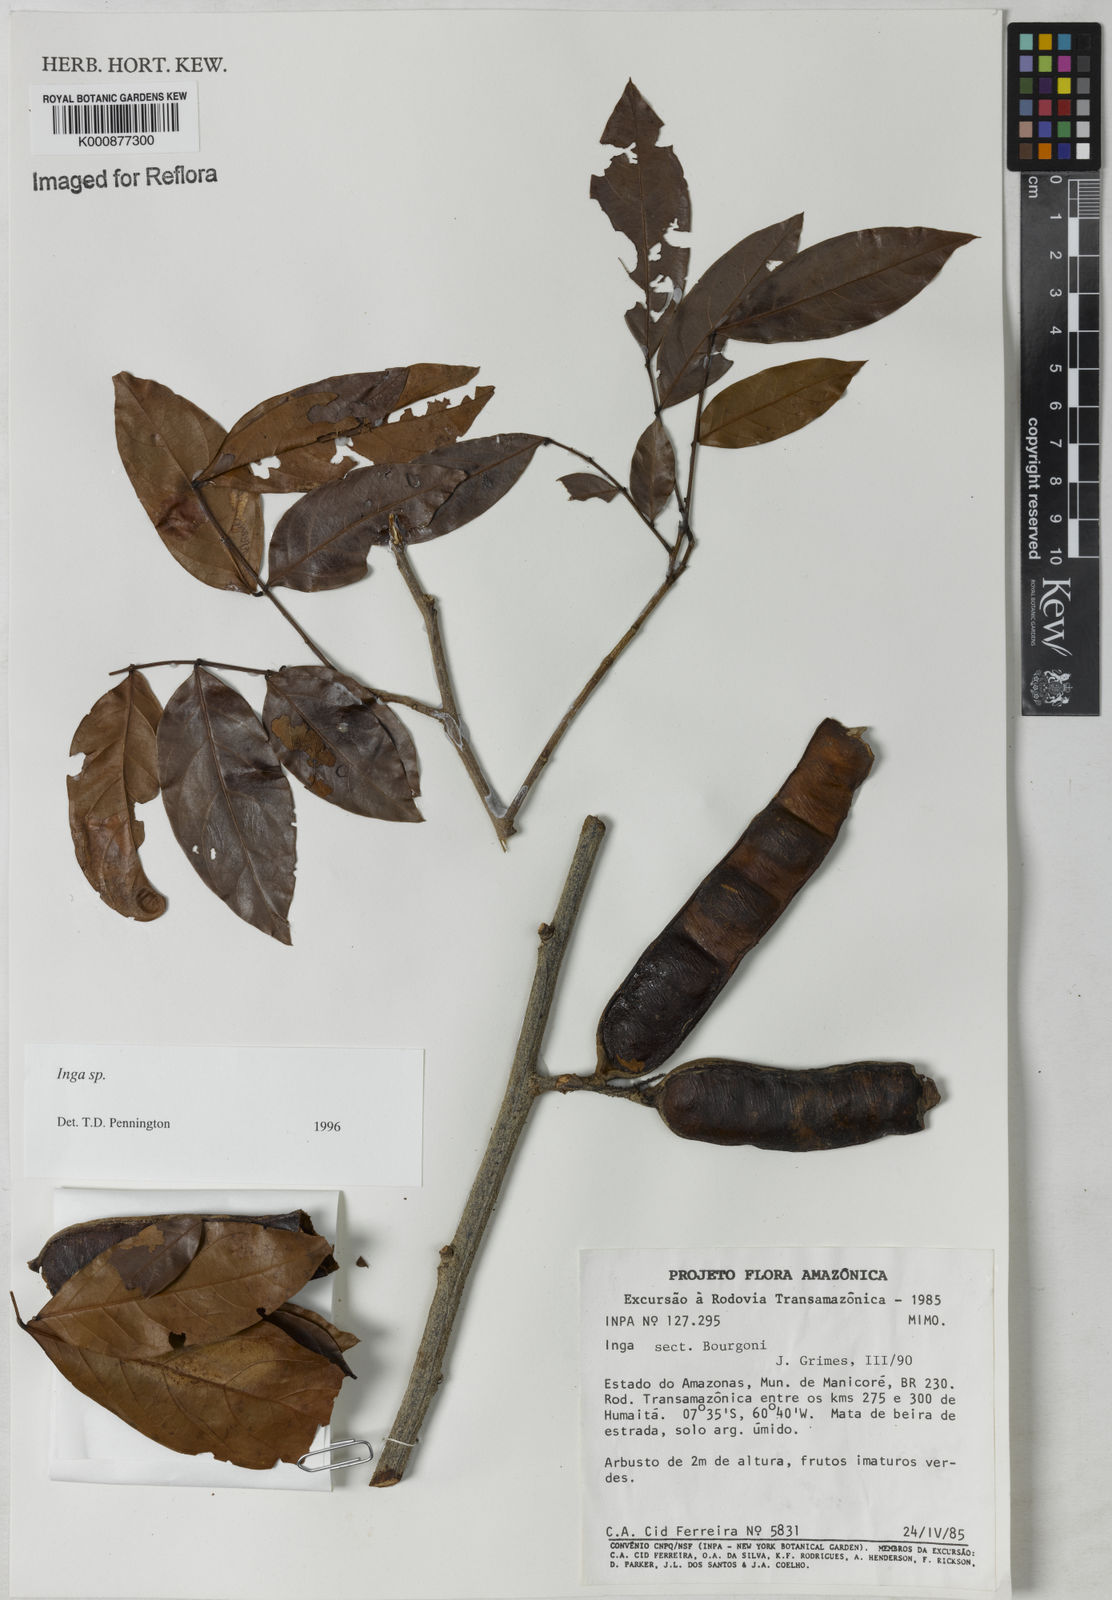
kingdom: Plantae
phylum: Tracheophyta
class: Magnoliopsida
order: Fabales
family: Fabaceae
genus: Inga
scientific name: Inga
